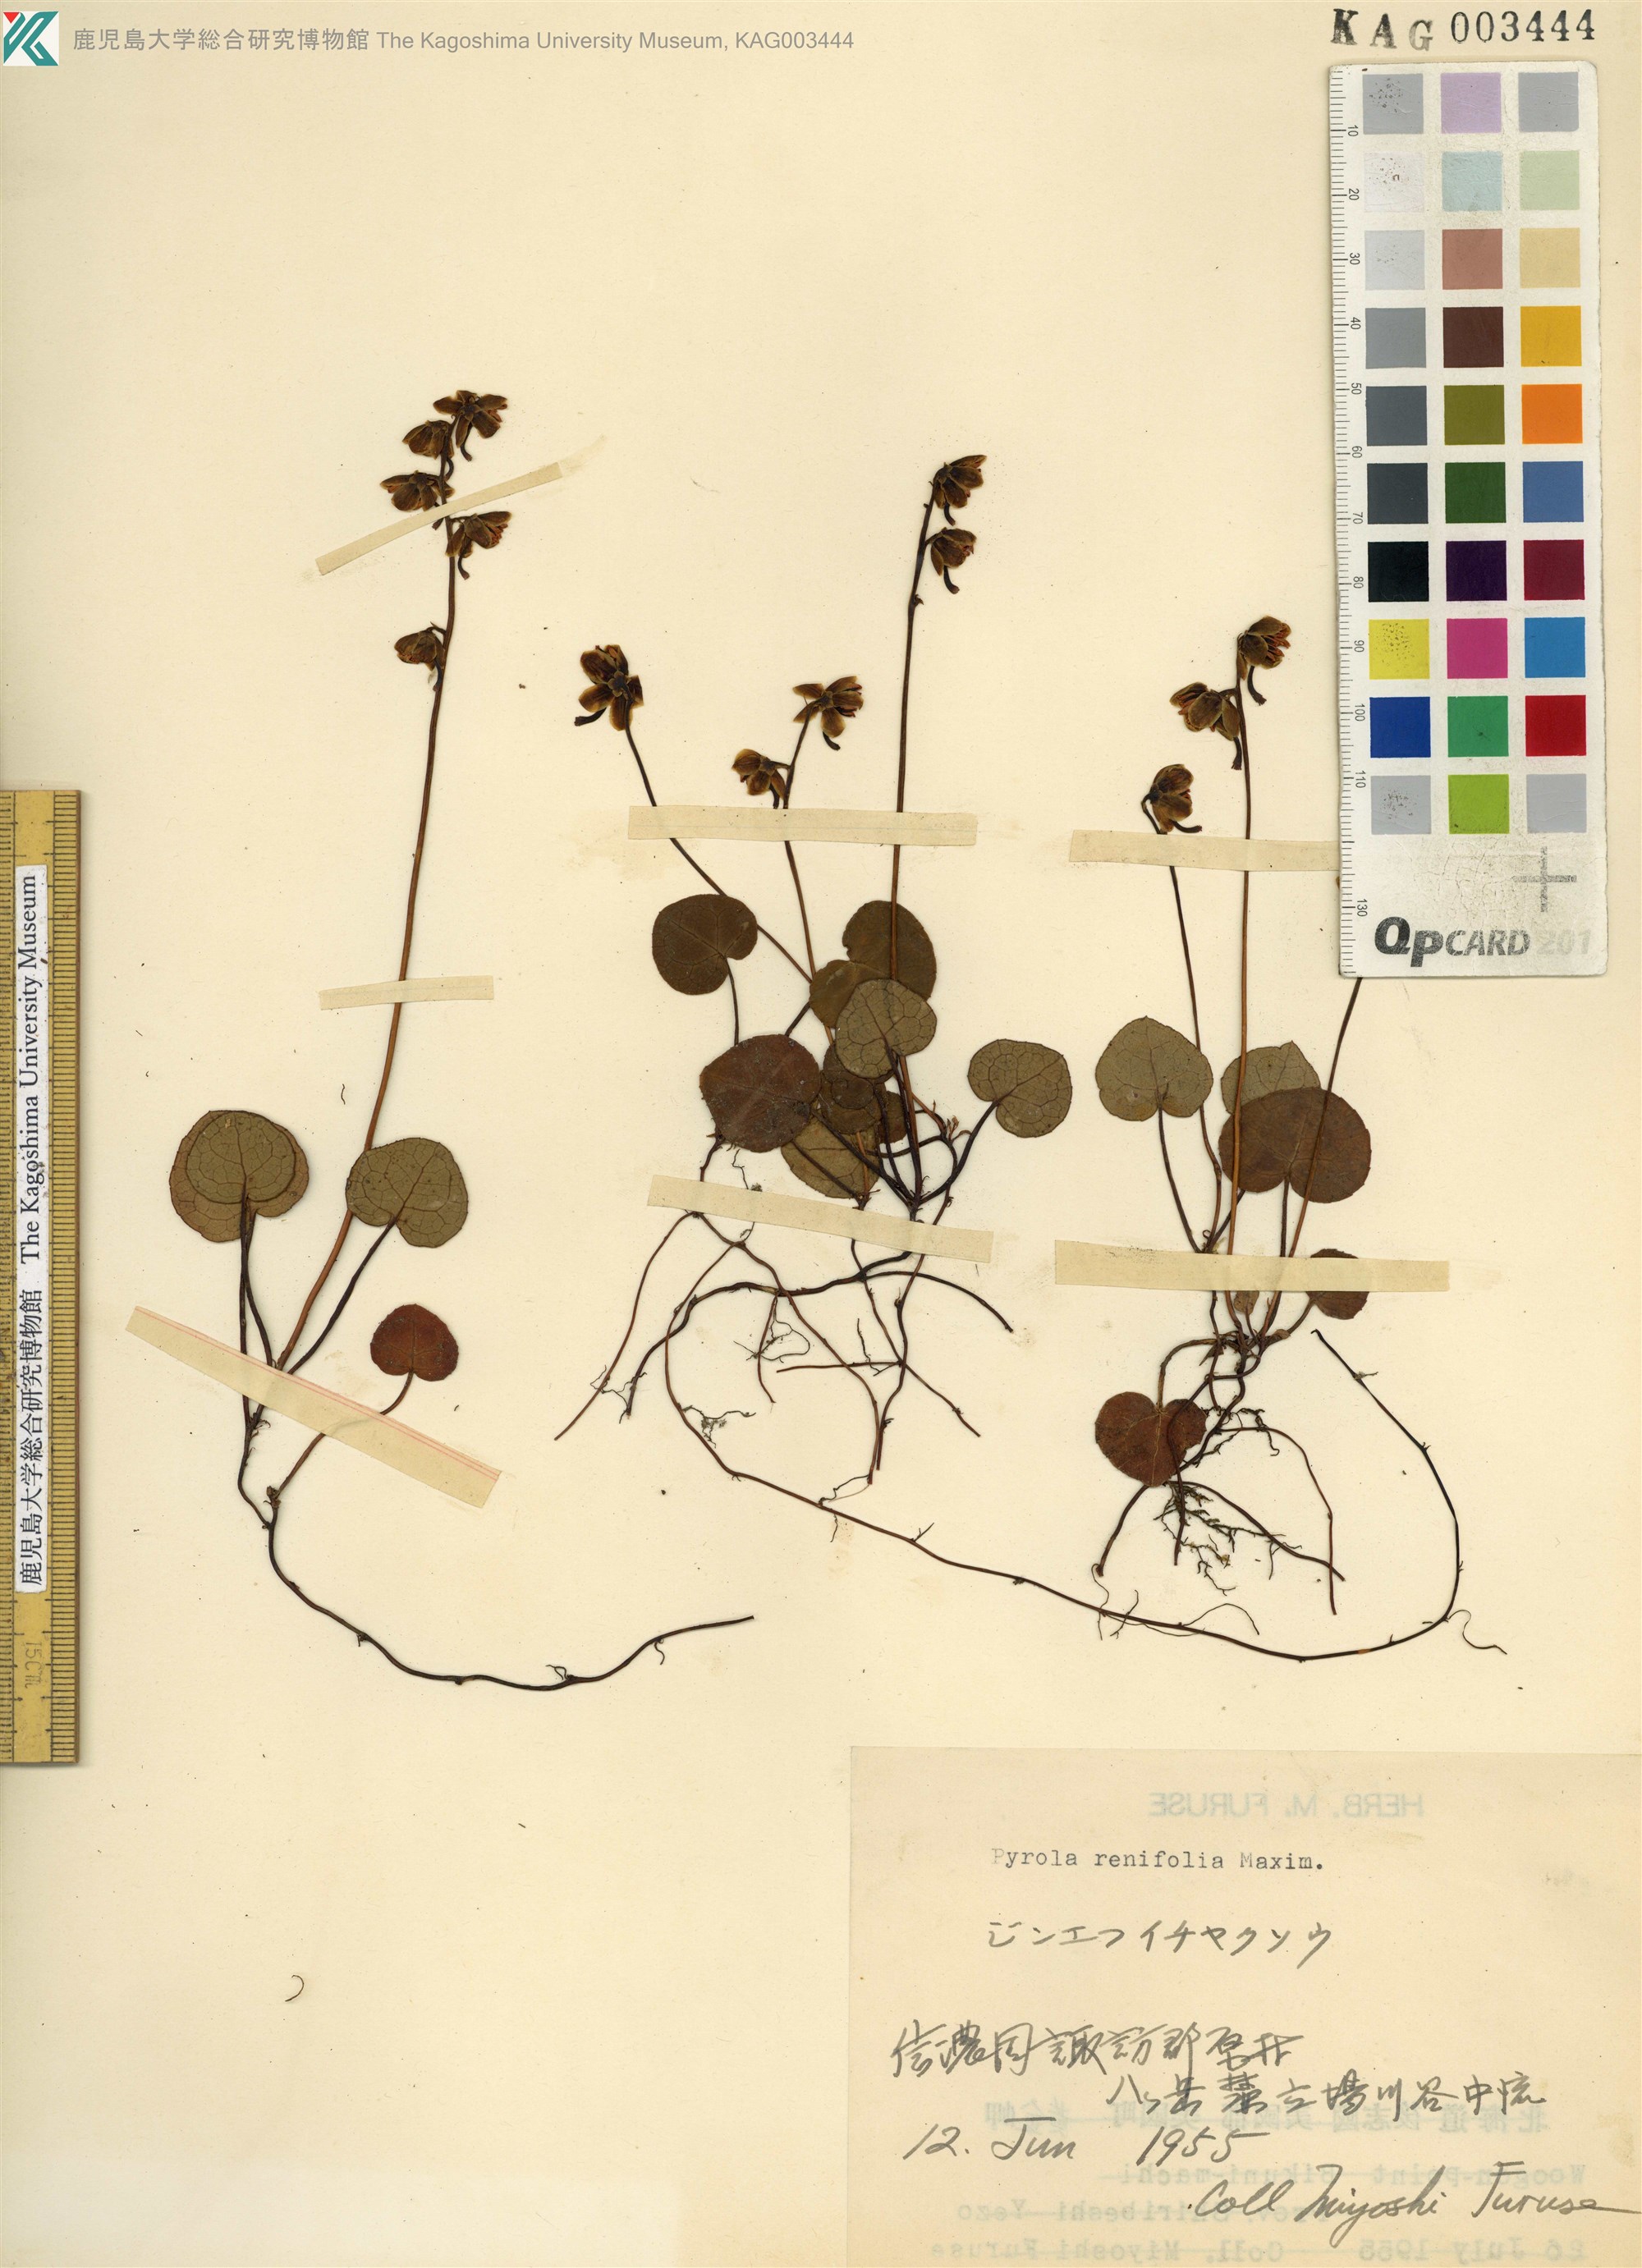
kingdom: Plantae
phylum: Tracheophyta
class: Magnoliopsida
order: Ericales
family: Ericaceae
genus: Pyrola
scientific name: Pyrola renifolia
